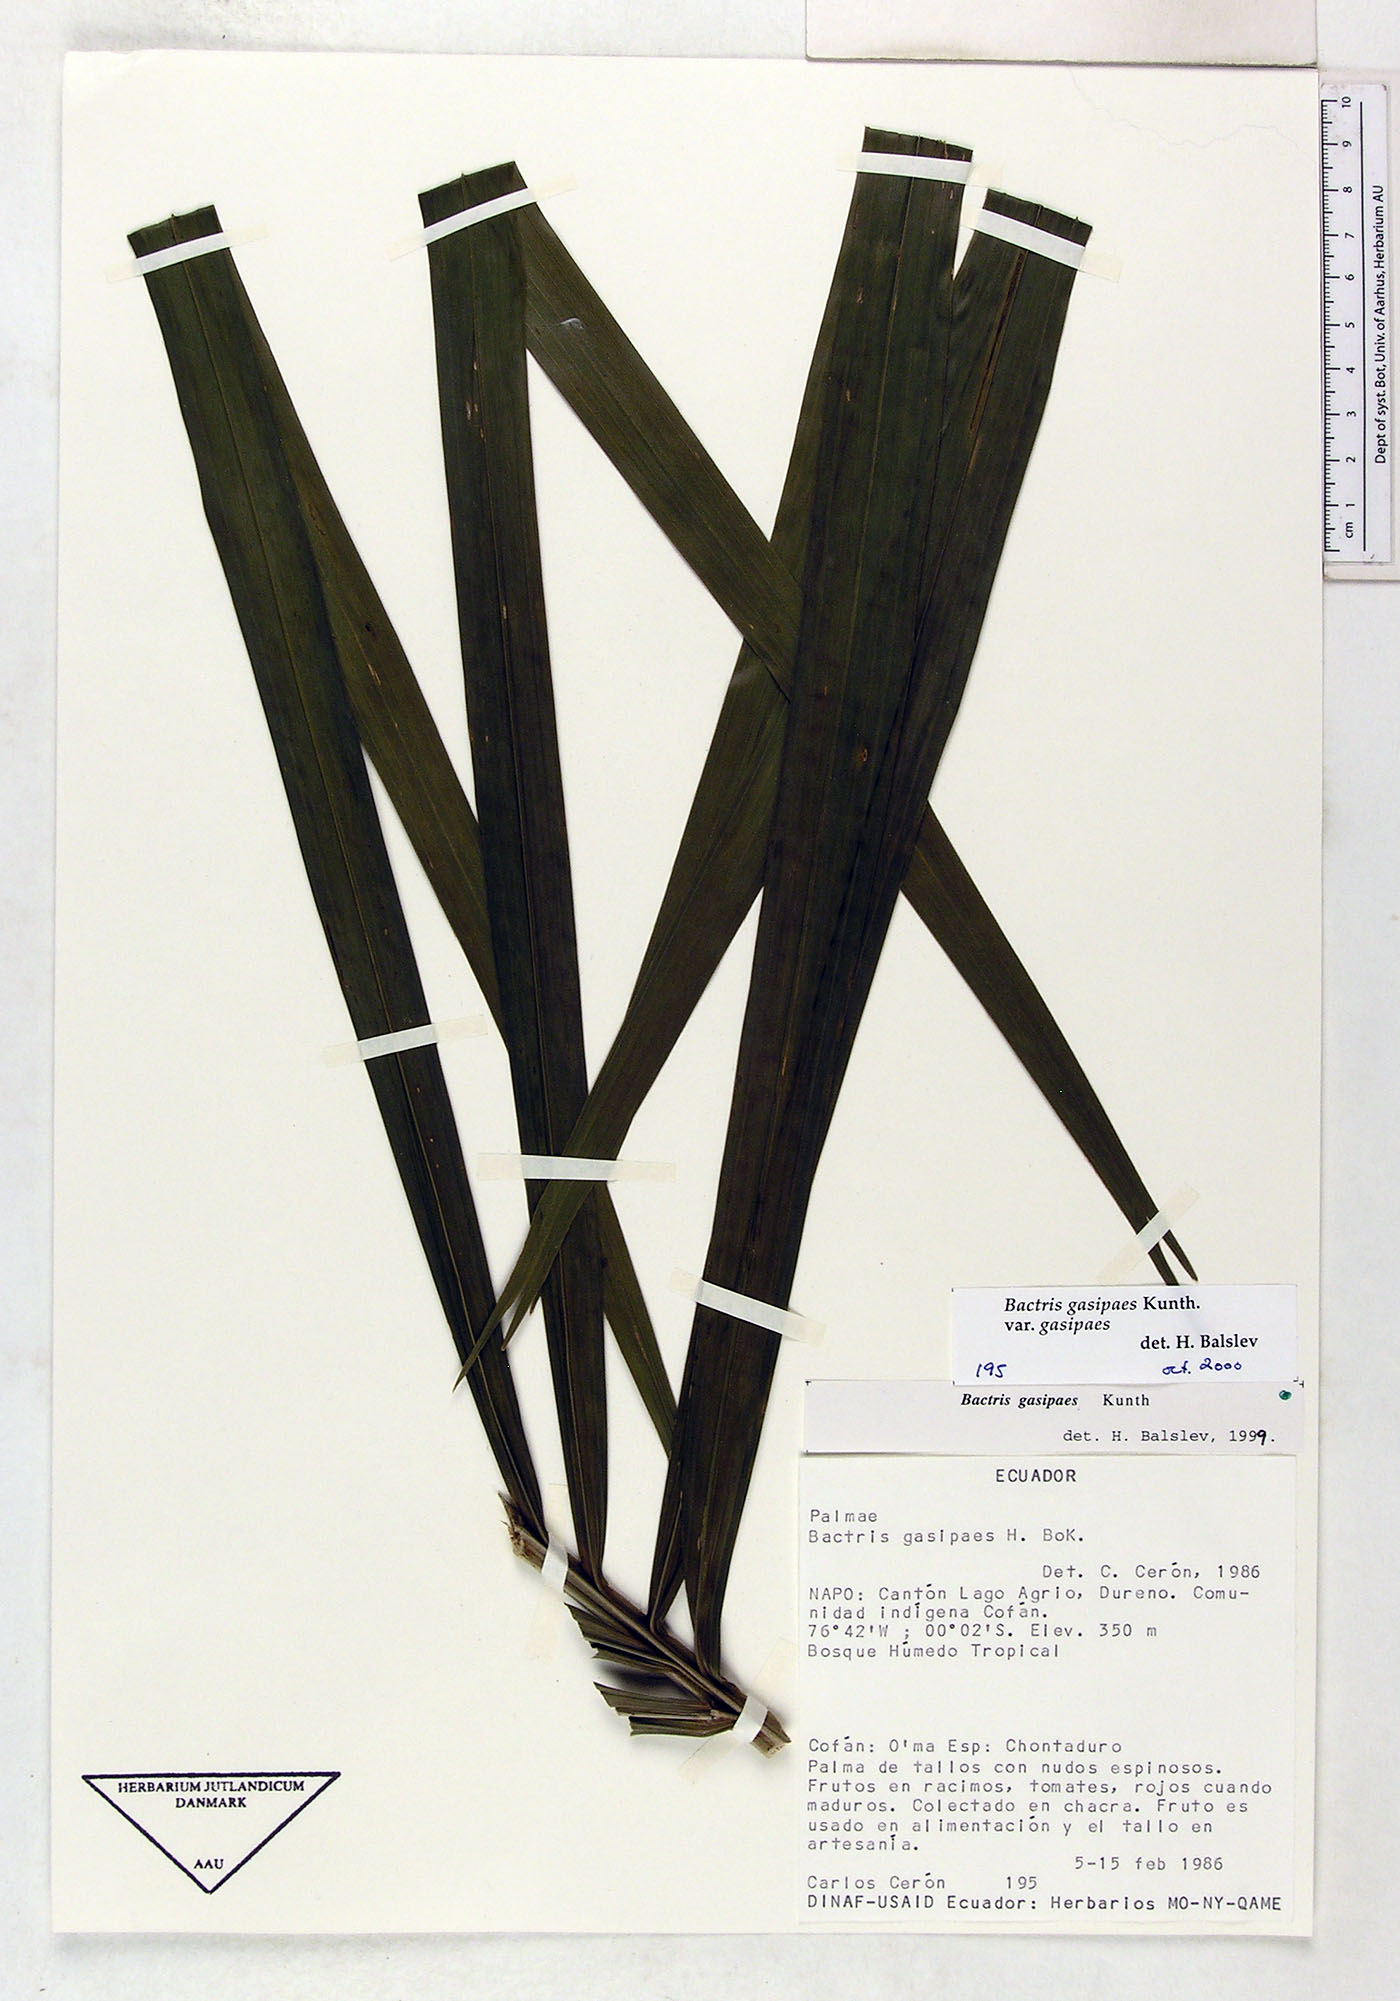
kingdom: Plantae
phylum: Tracheophyta
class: Liliopsida
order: Arecales
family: Arecaceae
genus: Bactris
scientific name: Bactris gasipaes
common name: Peach palm
